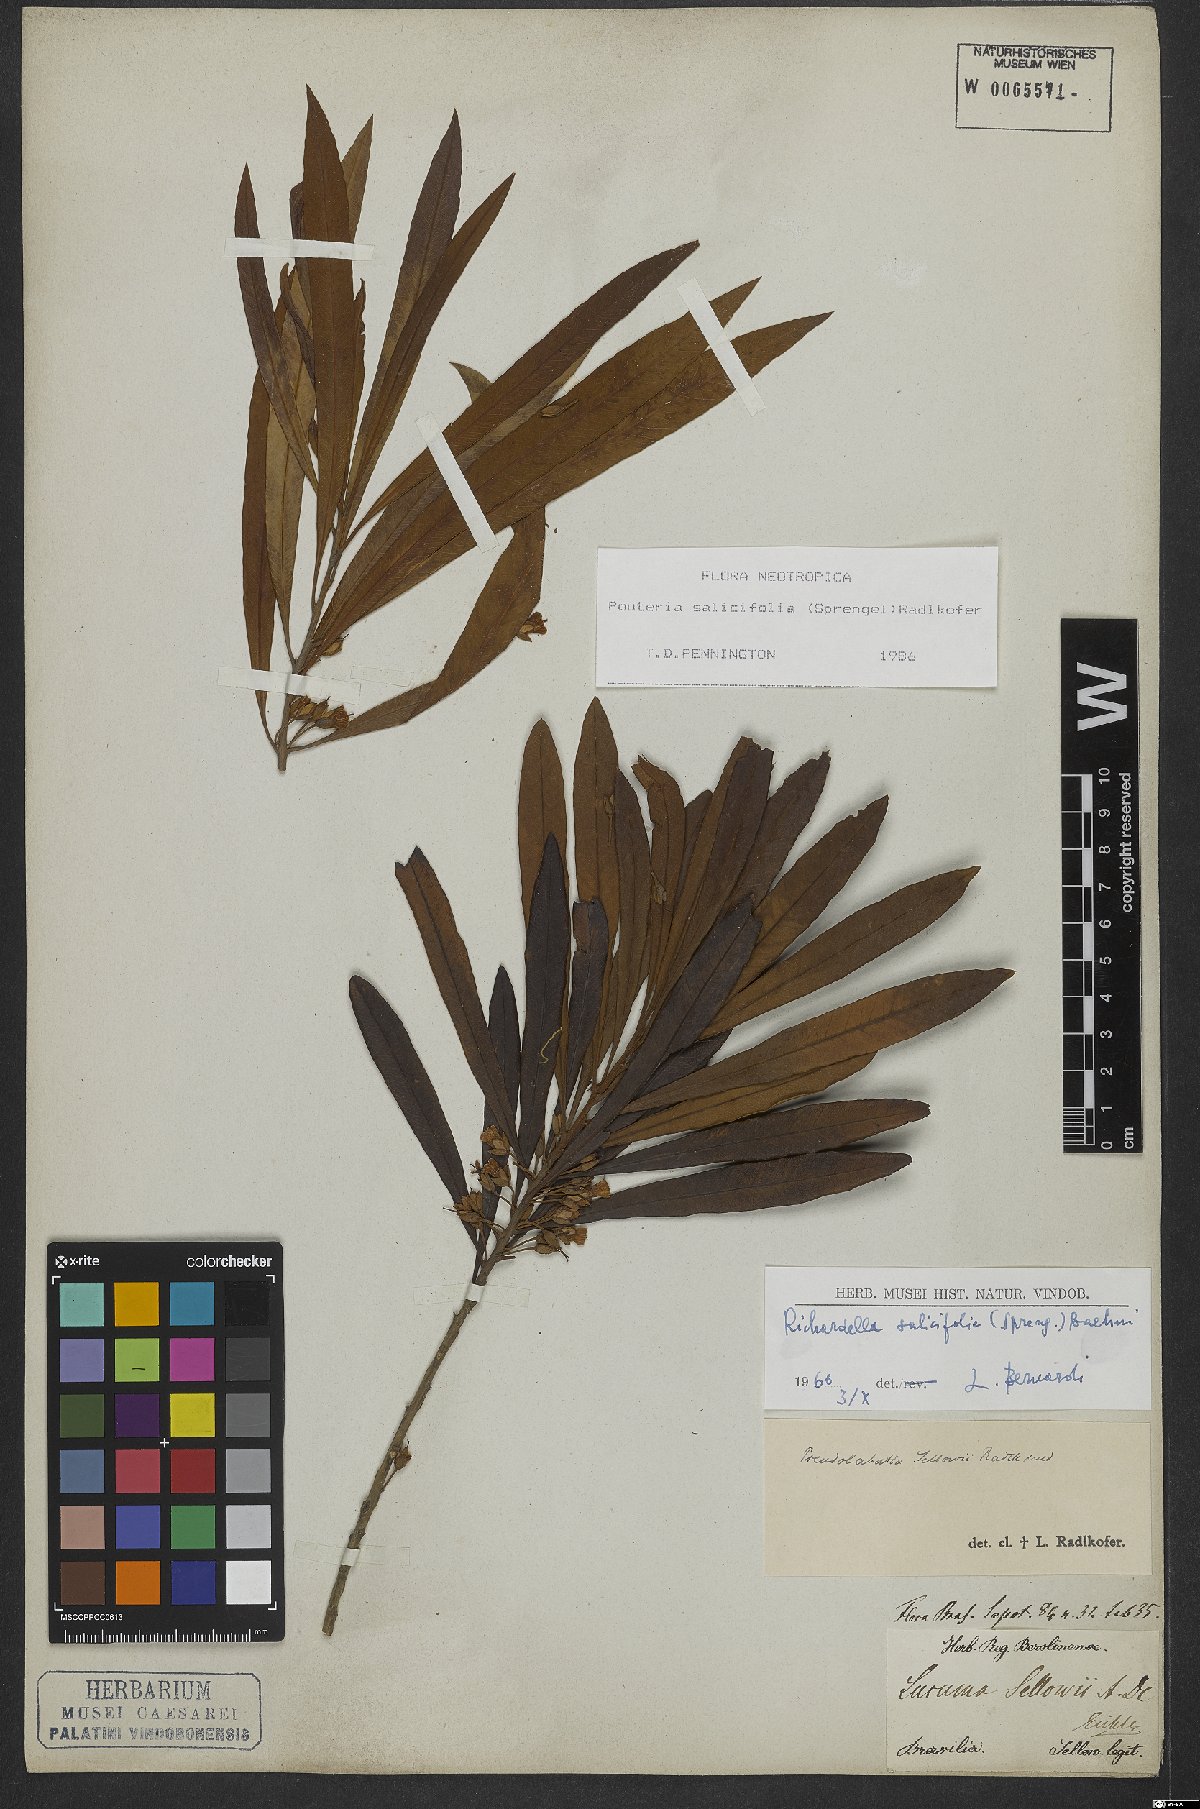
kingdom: Plantae
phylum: Tracheophyta
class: Magnoliopsida
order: Ericales
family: Sapotaceae
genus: Pouteria
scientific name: Pouteria salicifolia
